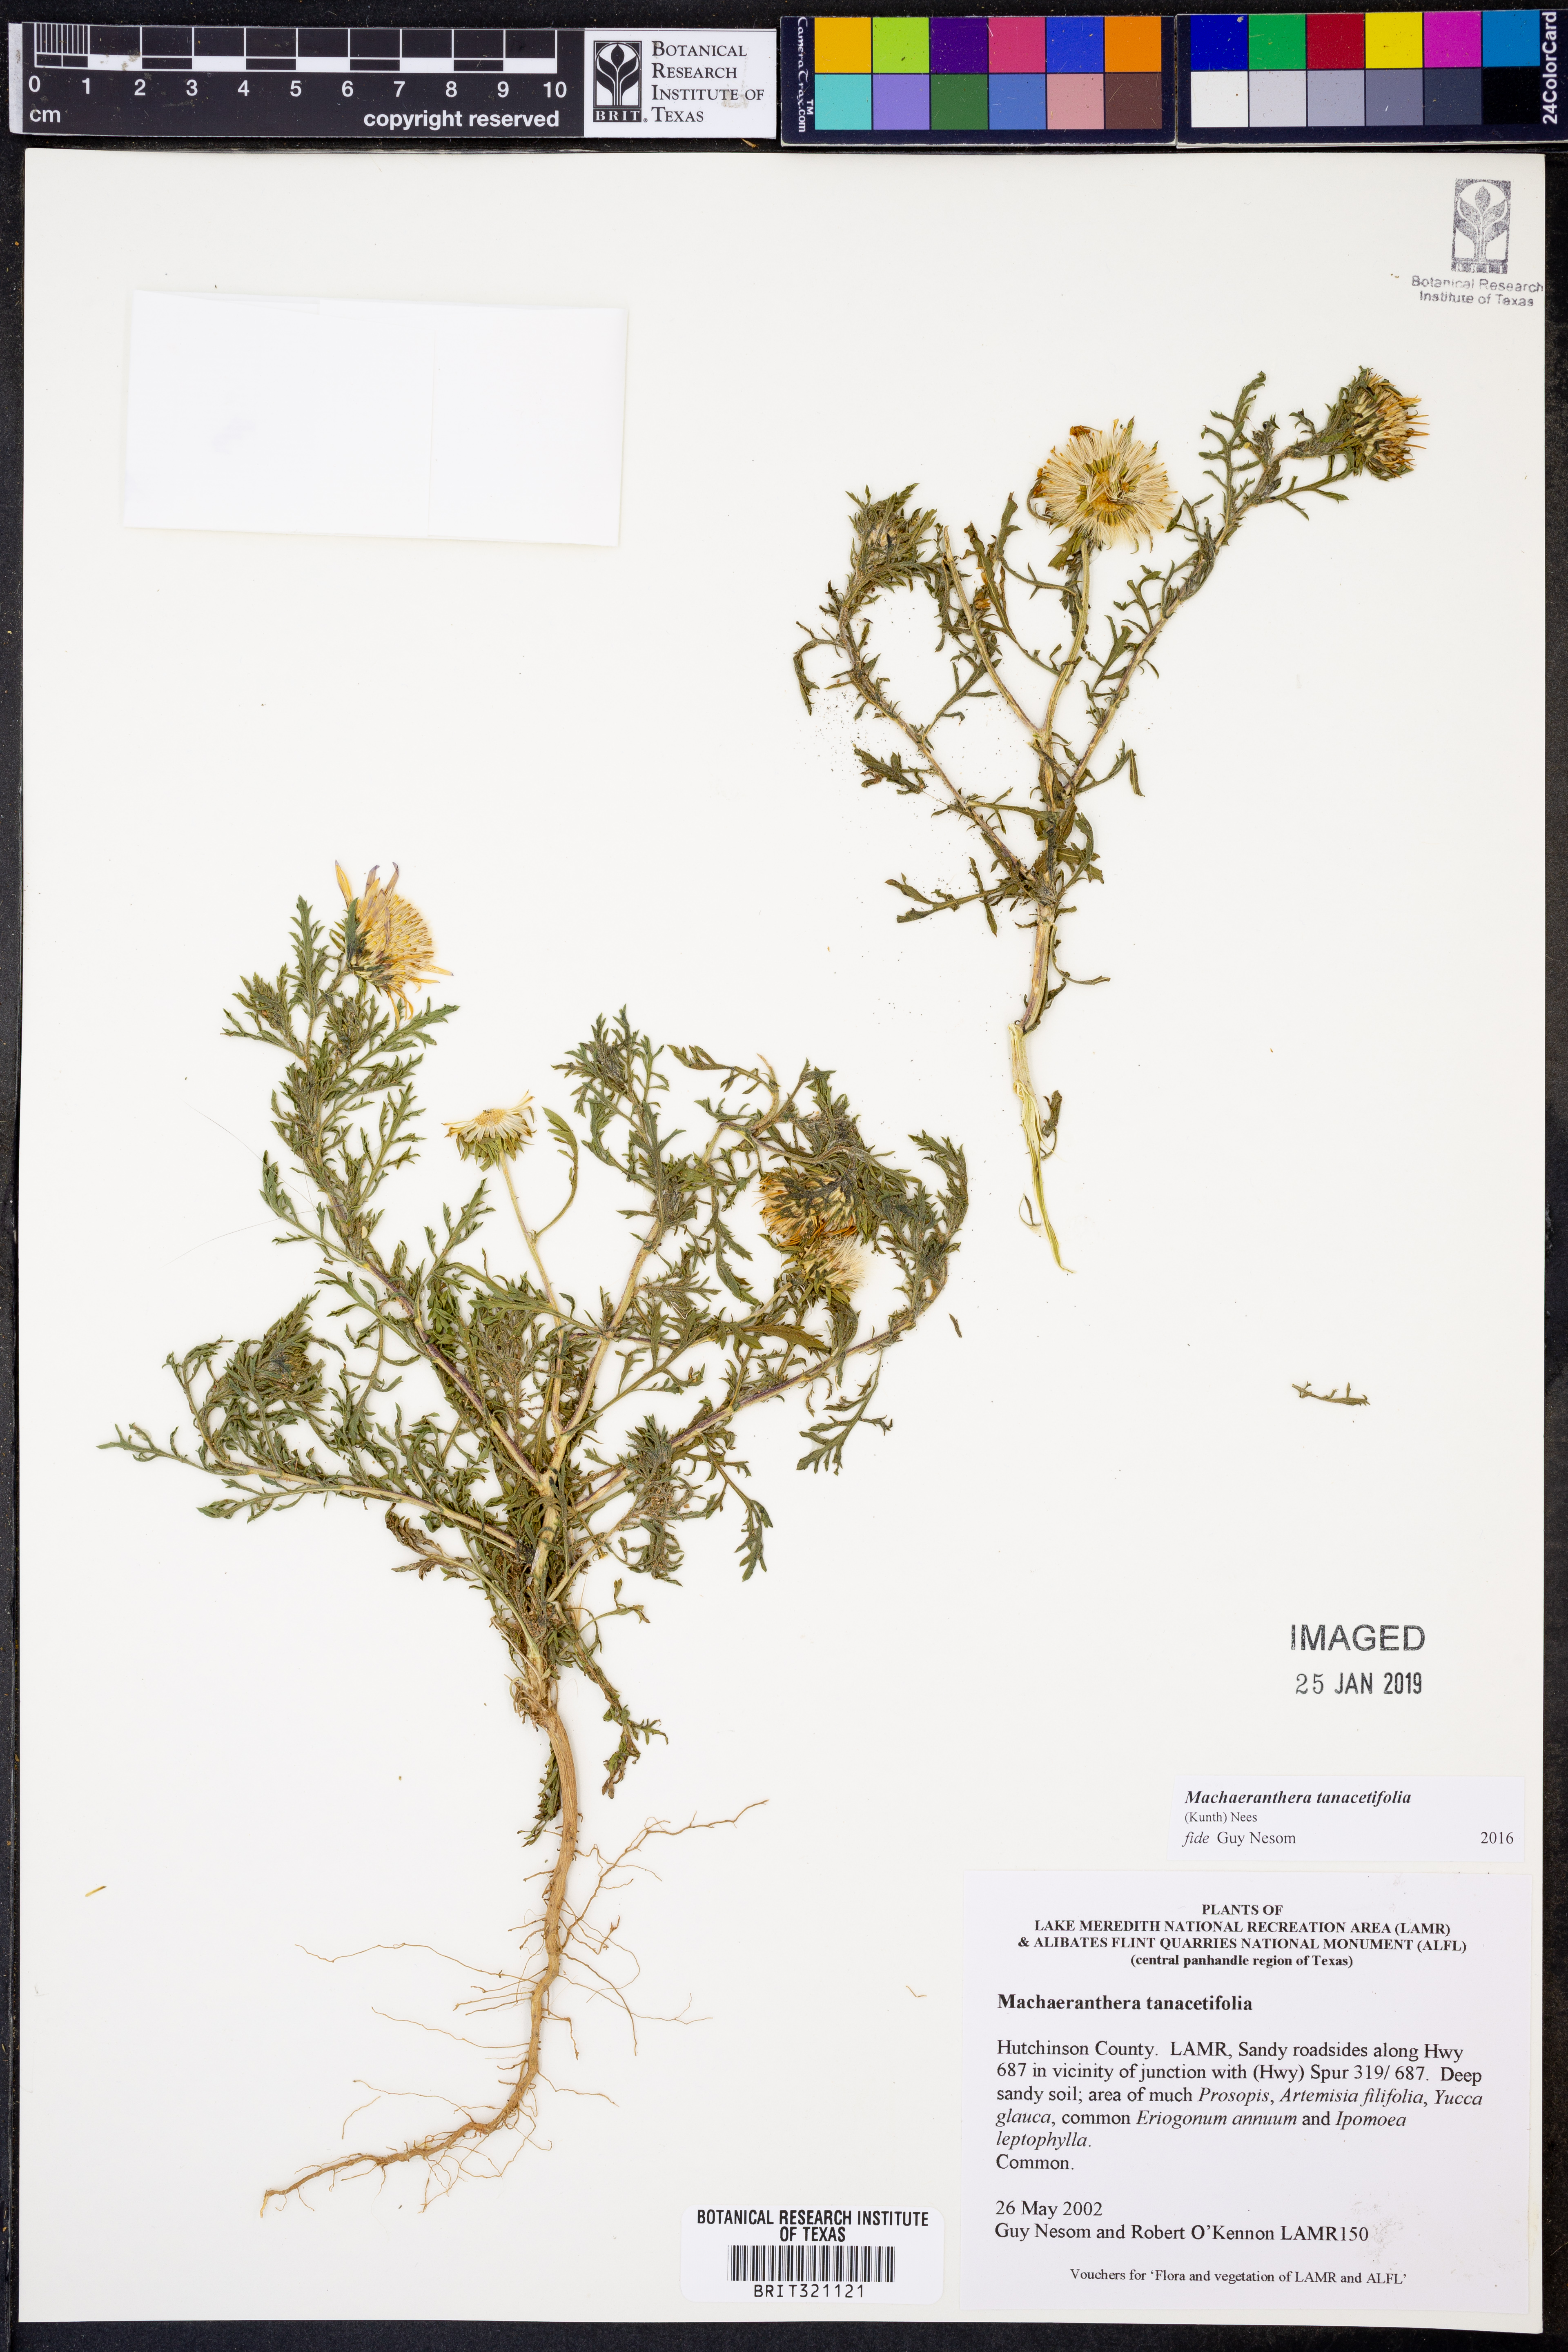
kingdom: Plantae
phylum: Tracheophyta
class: Magnoliopsida
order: Asterales
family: Asteraceae
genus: Machaeranthera
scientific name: Machaeranthera tanacetifolia
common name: Tansy-aster
